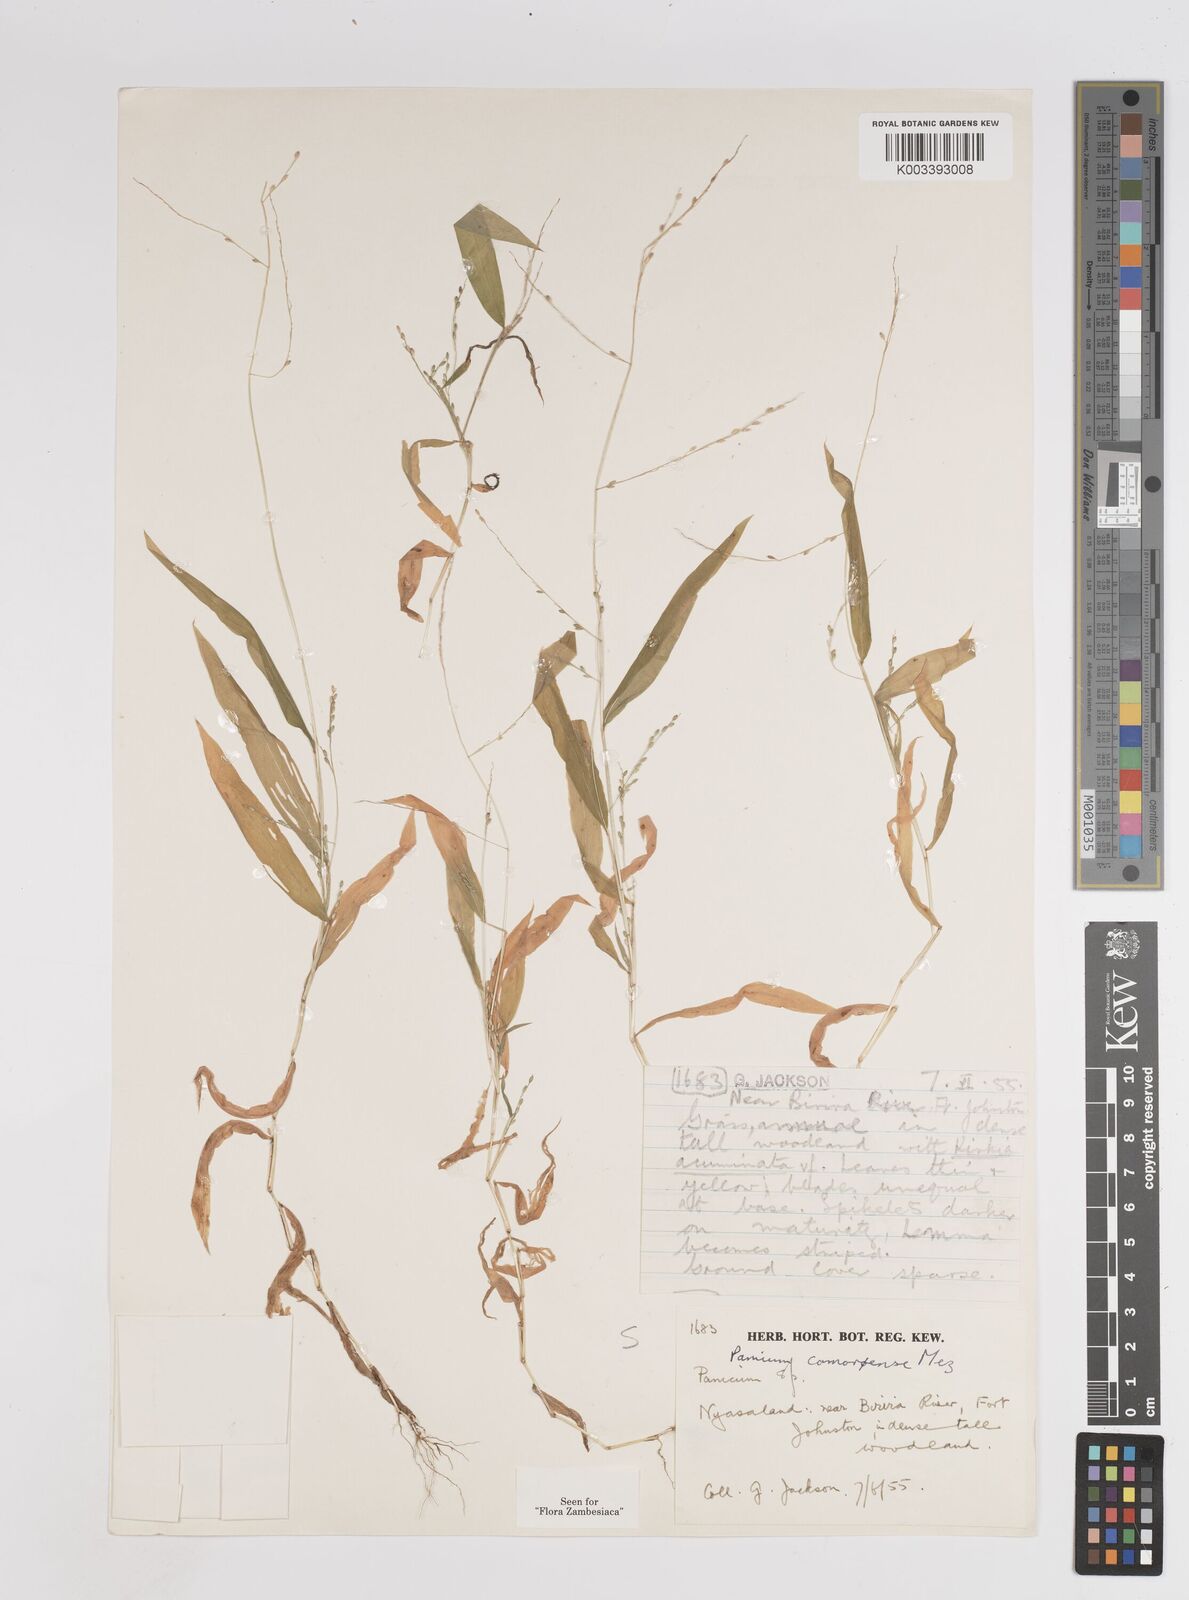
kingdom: Plantae
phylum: Tracheophyta
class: Liliopsida
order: Poales
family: Poaceae
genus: Panicum
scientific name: Panicum comorense
